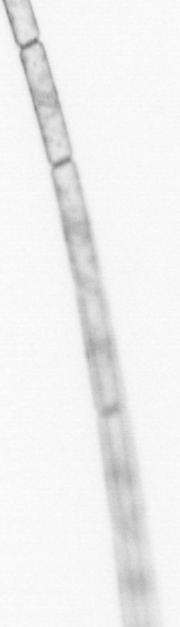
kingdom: Chromista
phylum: Ochrophyta
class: Bacillariophyceae
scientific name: Bacillariophyceae
